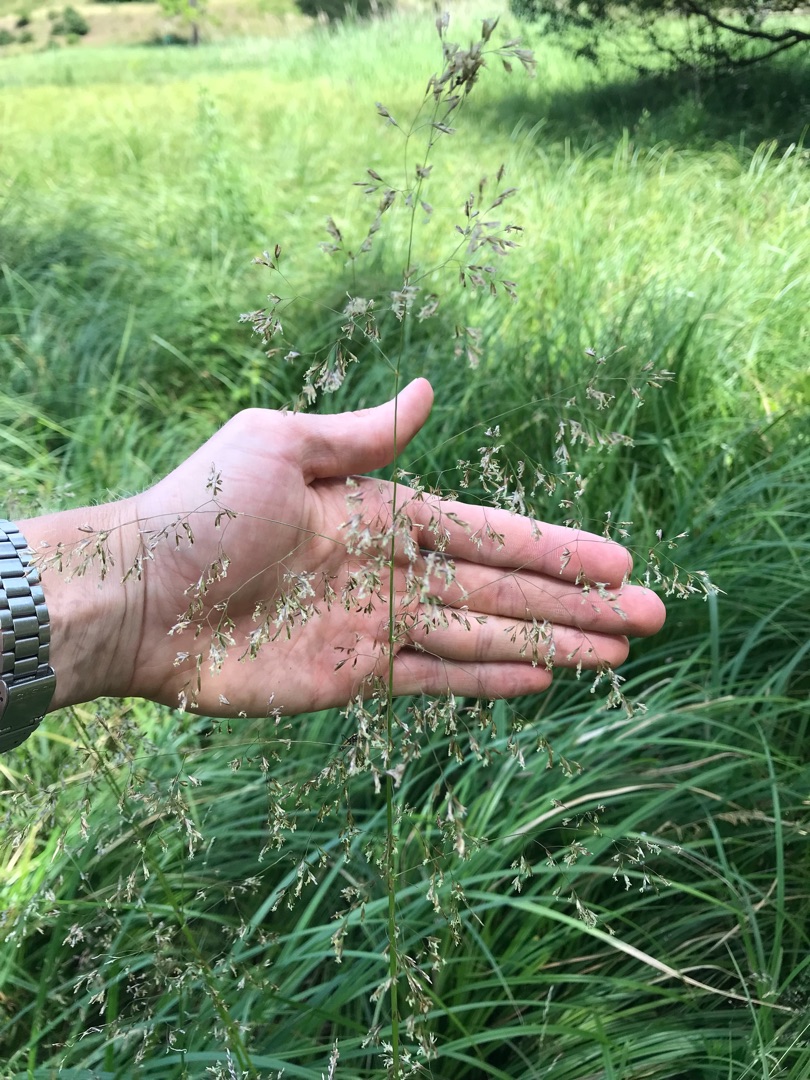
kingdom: Plantae
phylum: Tracheophyta
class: Liliopsida
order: Poales
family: Poaceae
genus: Deschampsia
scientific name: Deschampsia cespitosa
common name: Mose-bunke
